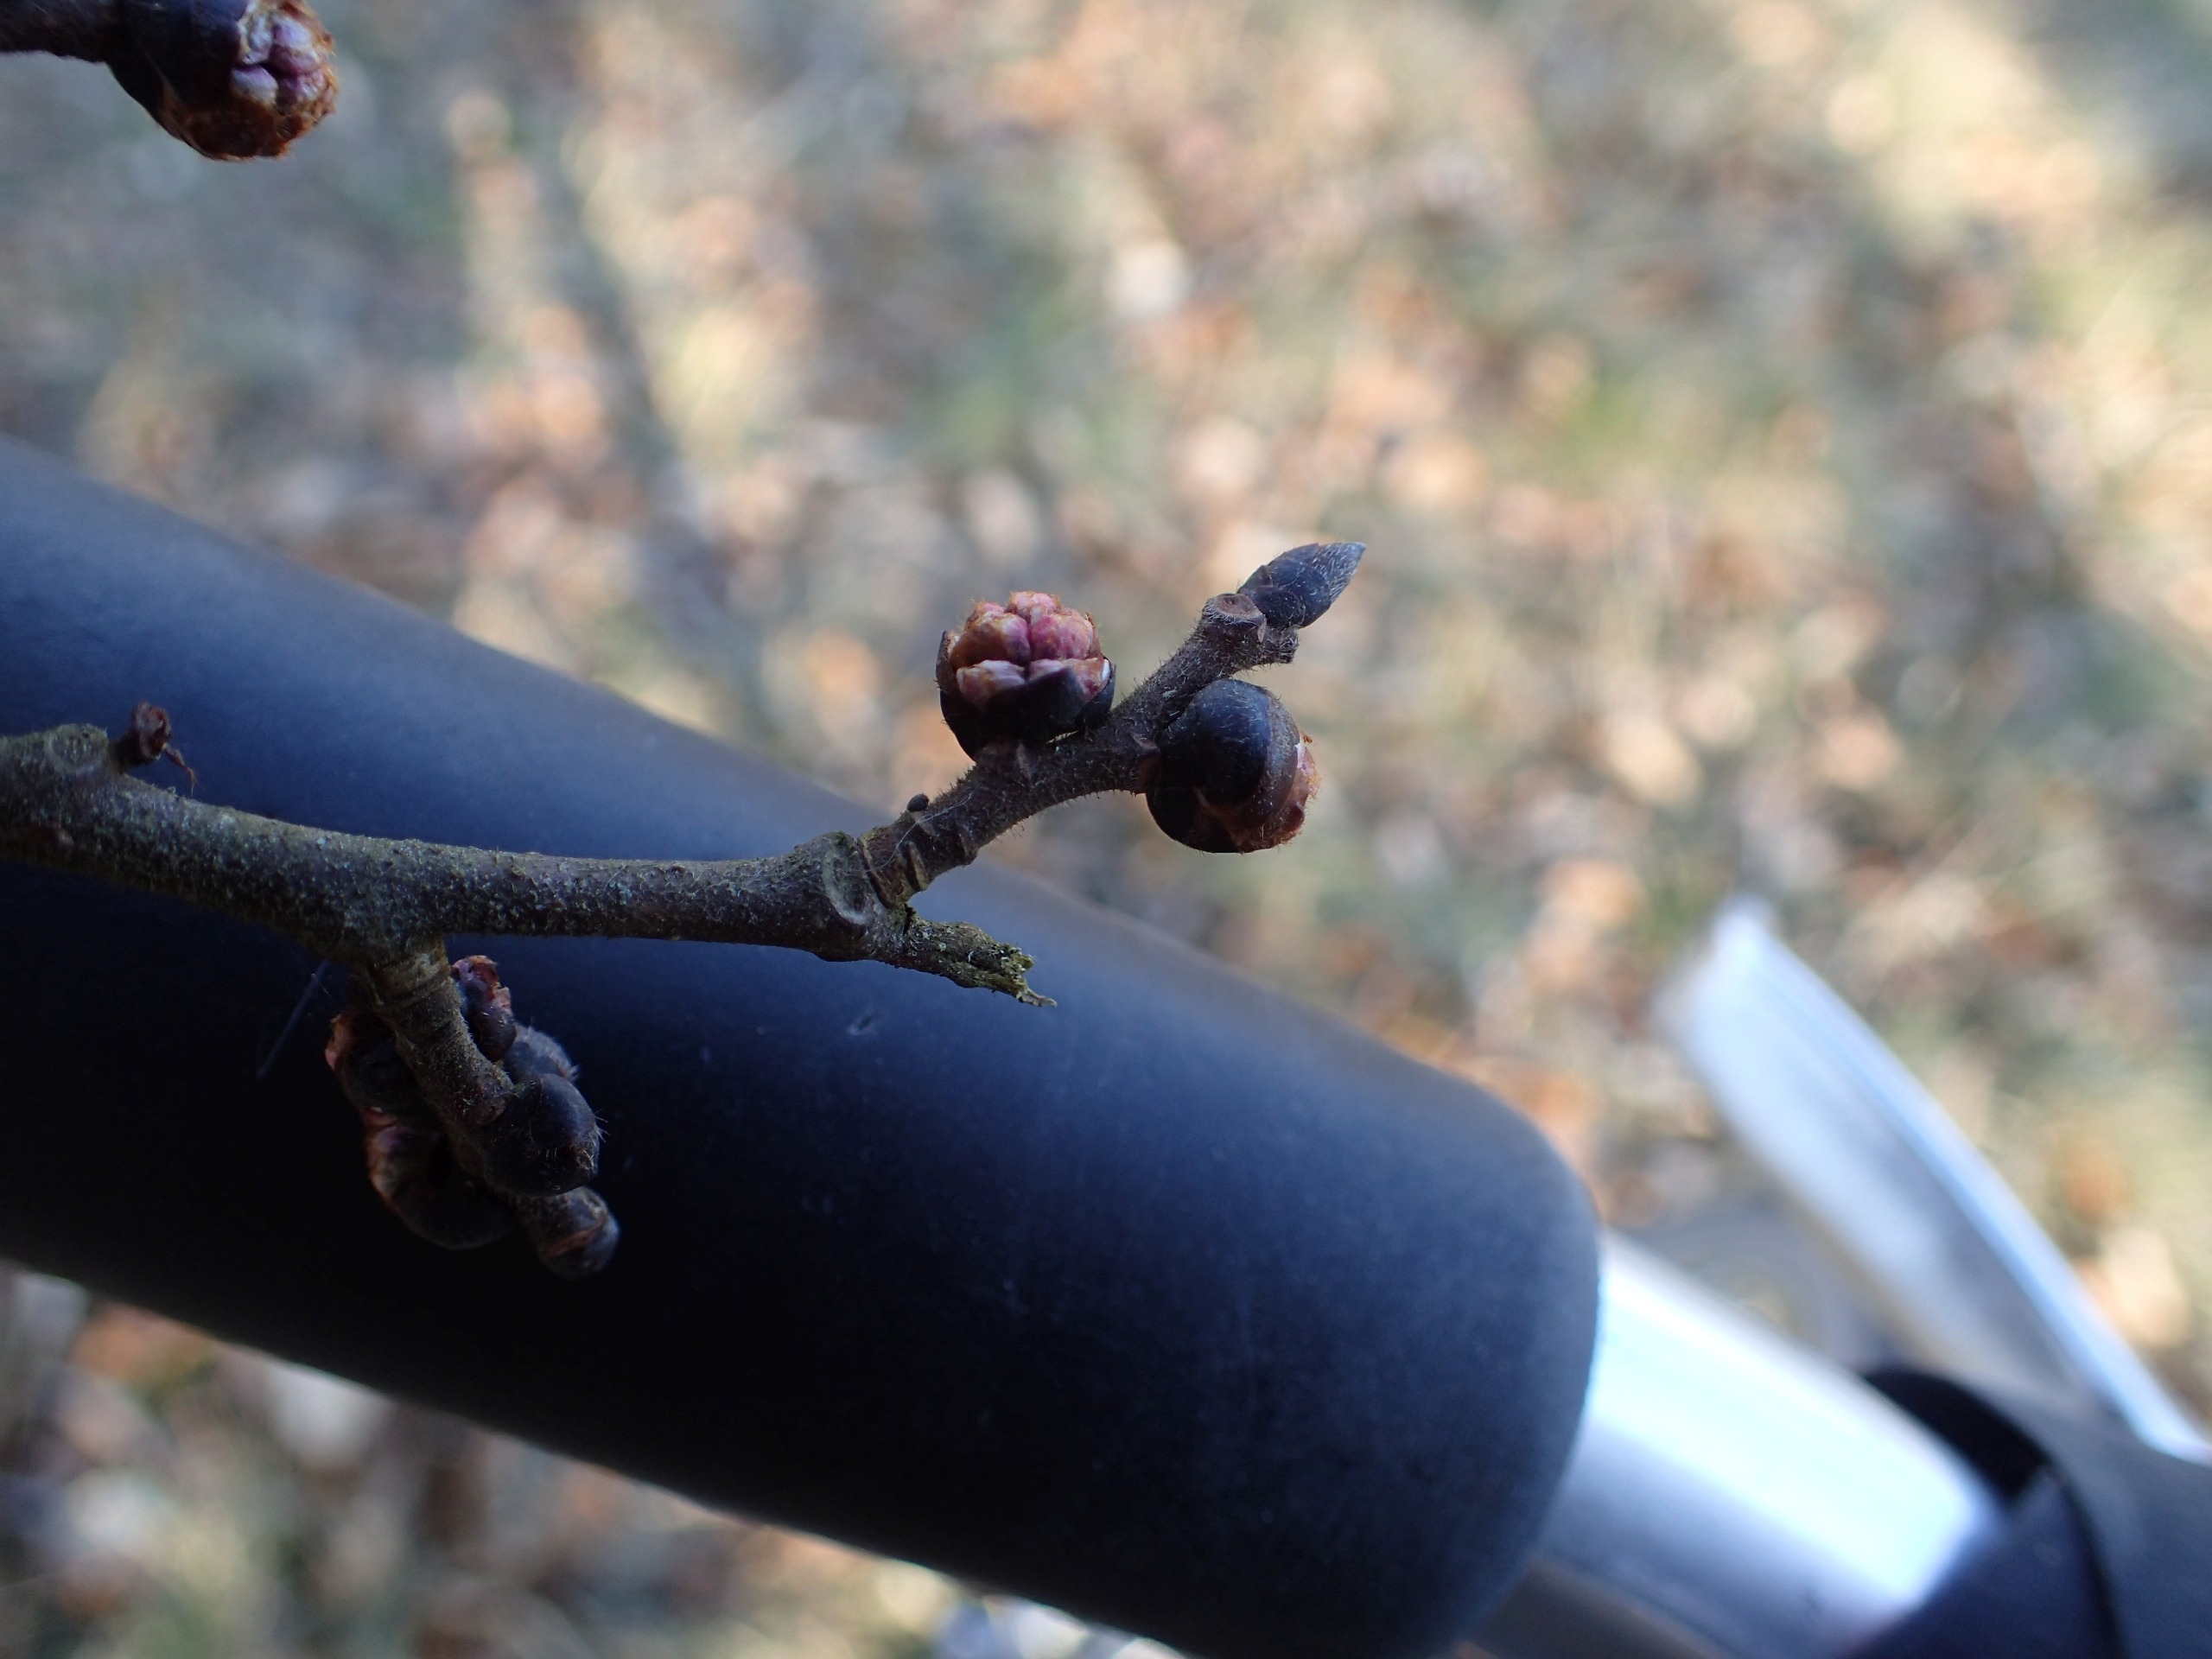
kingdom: Plantae
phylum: Tracheophyta
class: Magnoliopsida
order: Rosales
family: Ulmaceae
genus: Ulmus
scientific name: Ulmus glabra
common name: Skov-elm/storbladet elm
